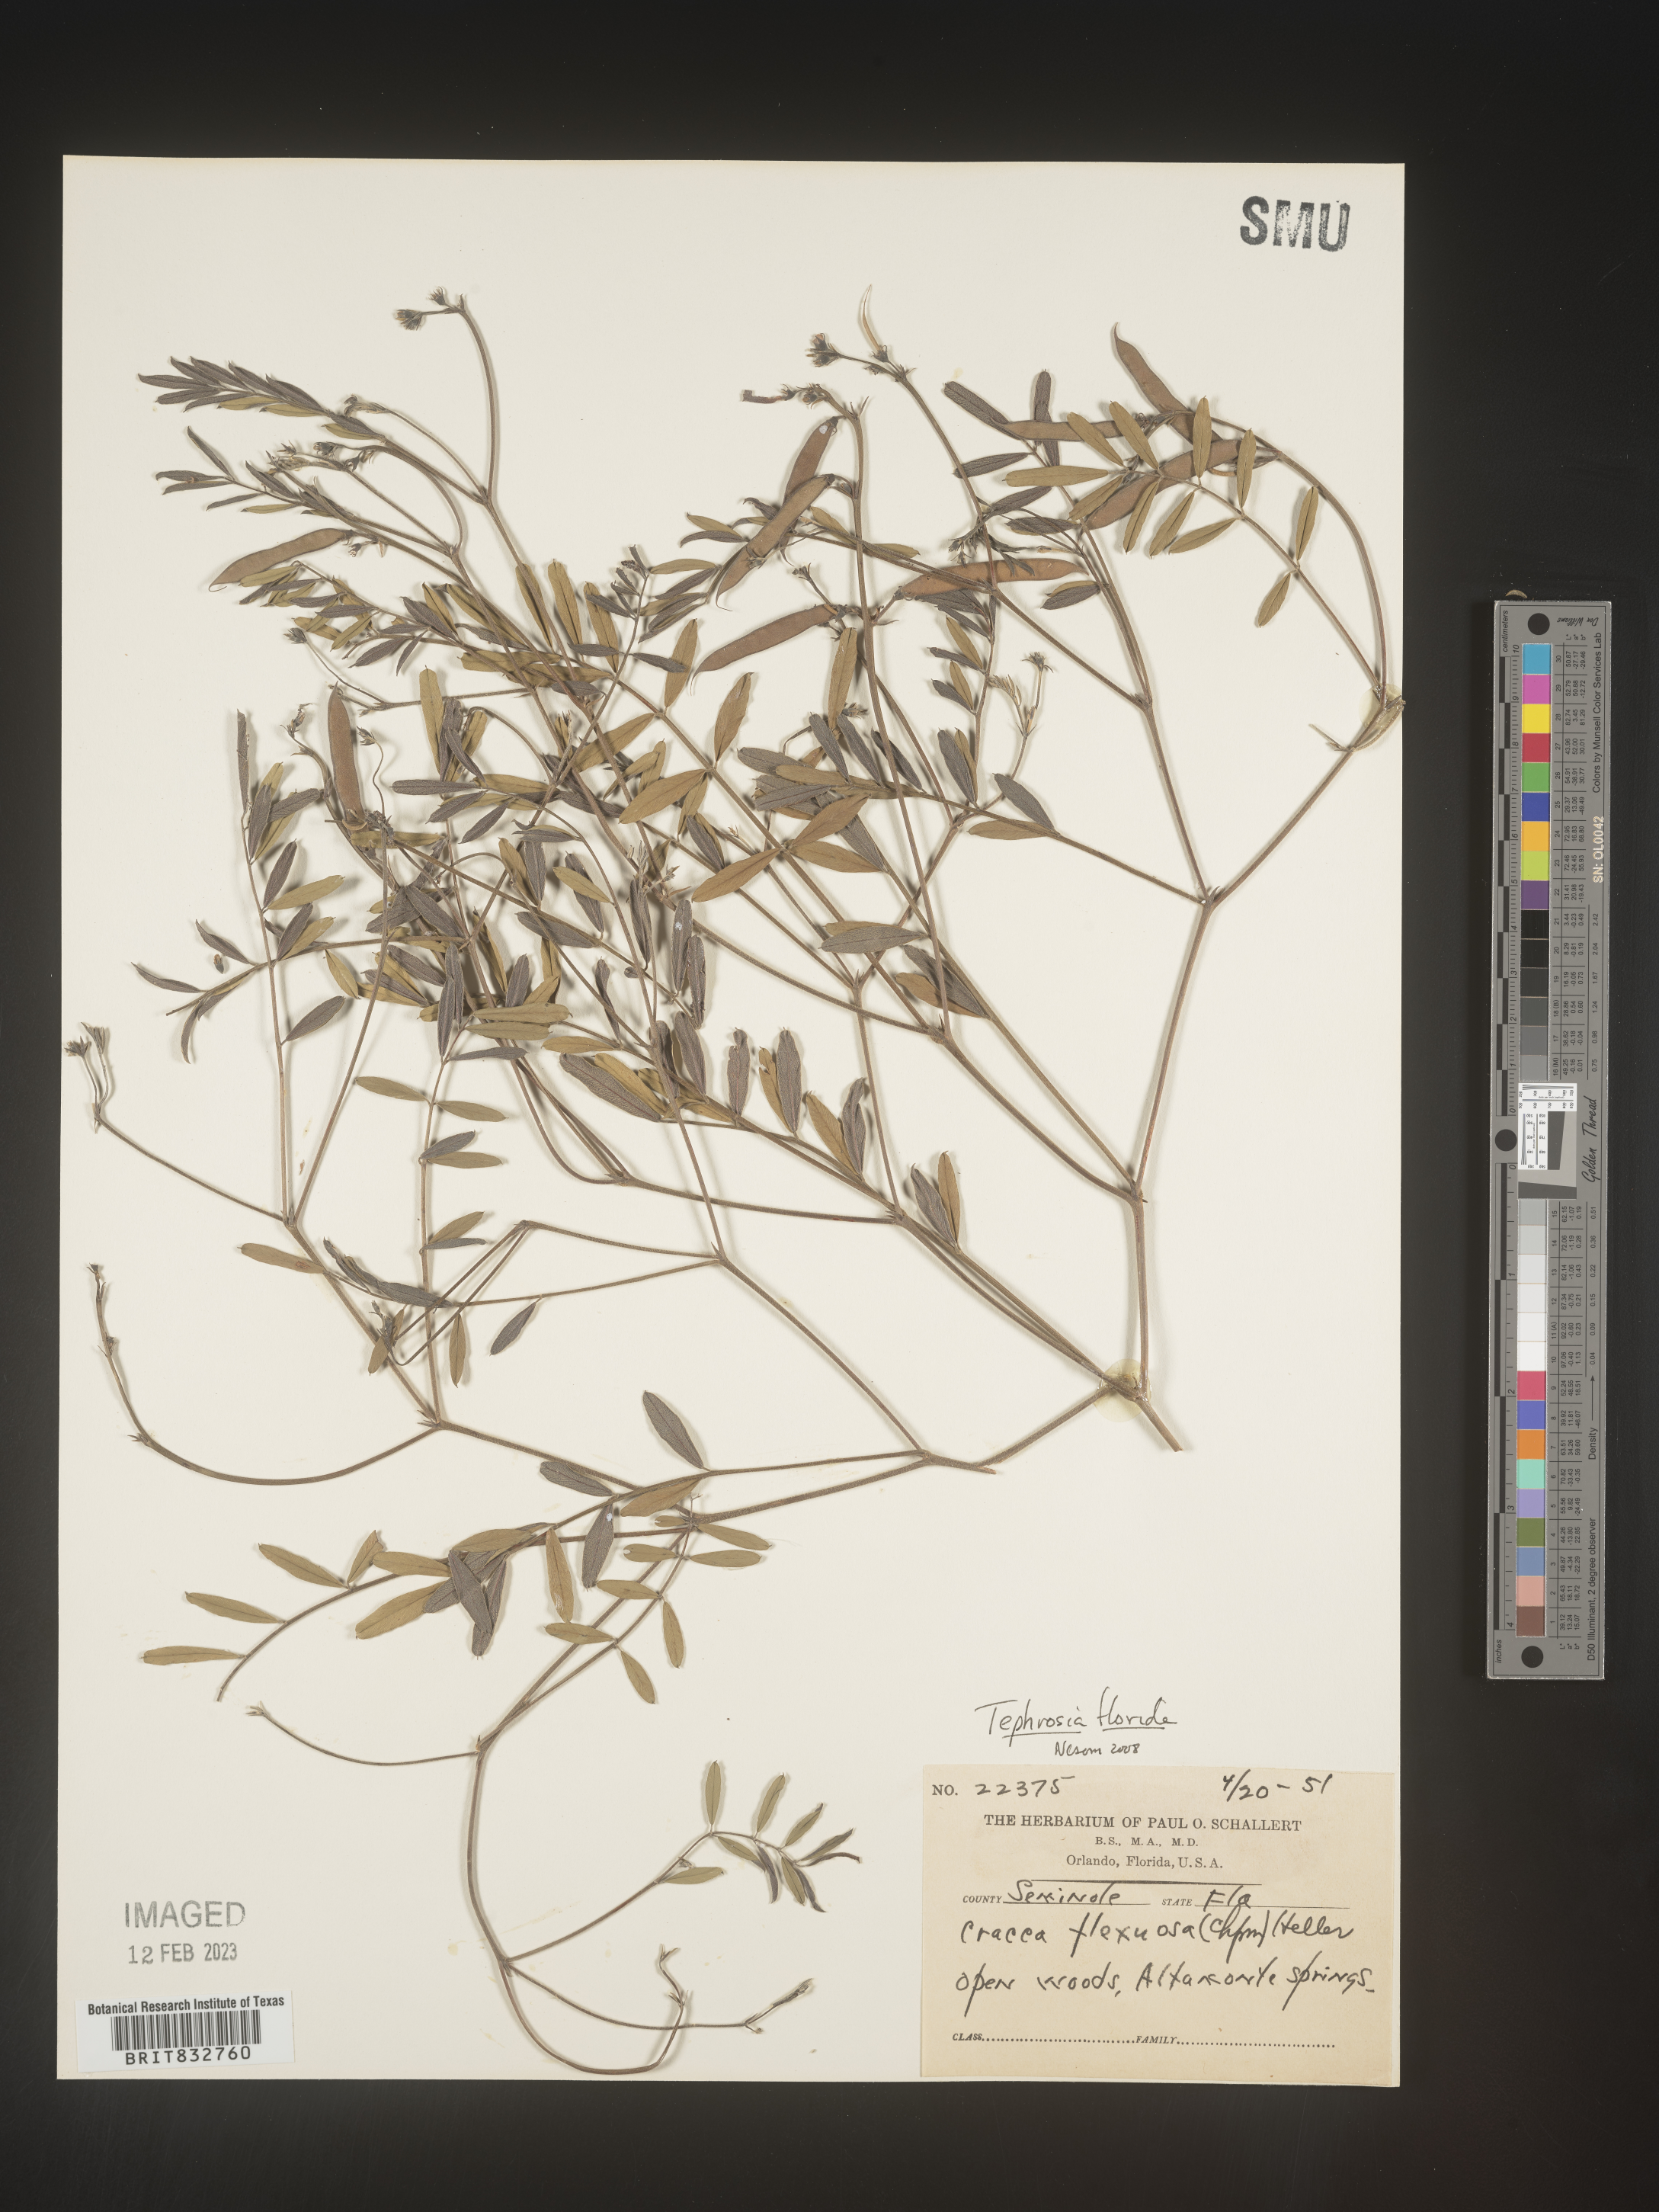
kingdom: Plantae
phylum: Tracheophyta
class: Magnoliopsida
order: Fabales
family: Fabaceae
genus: Tephrosia
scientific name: Tephrosia florida
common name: Florida hoary-pea
